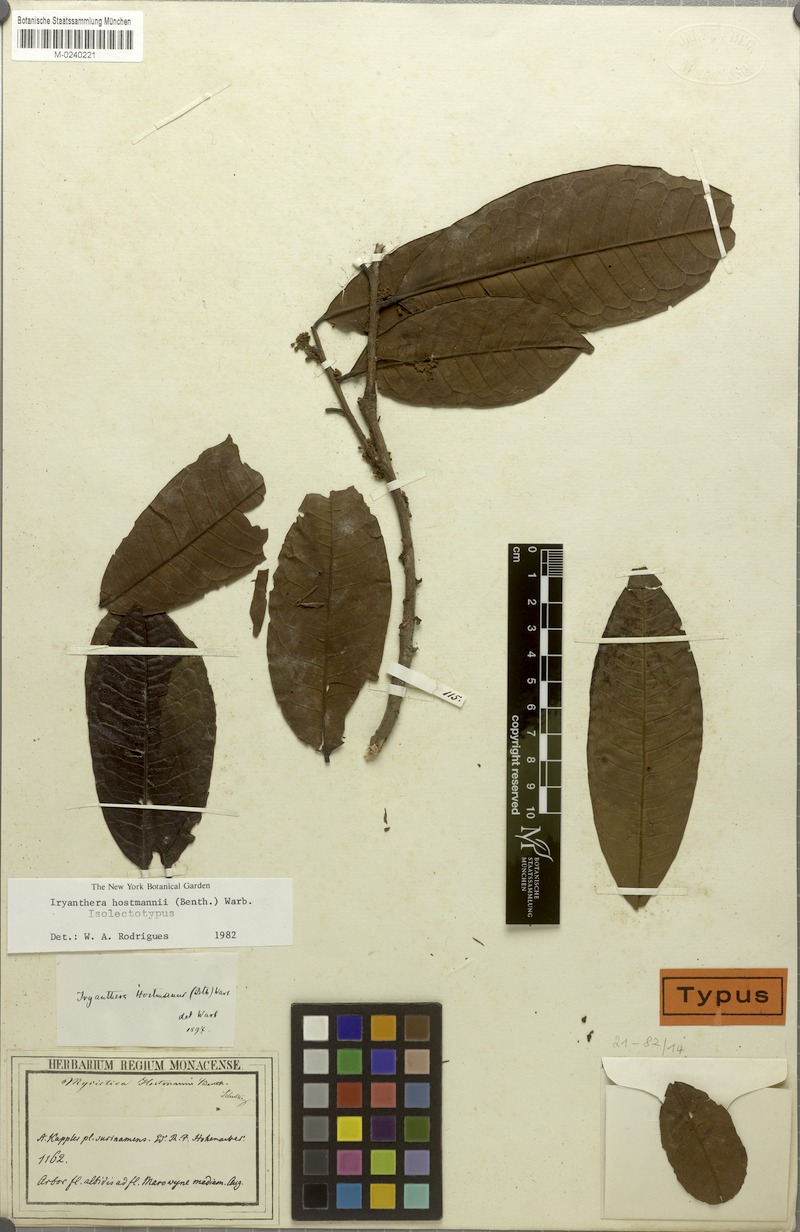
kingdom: Plantae
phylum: Tracheophyta
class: Magnoliopsida
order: Magnoliales
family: Myristicaceae
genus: Iryanthera
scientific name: Iryanthera hostmannii
